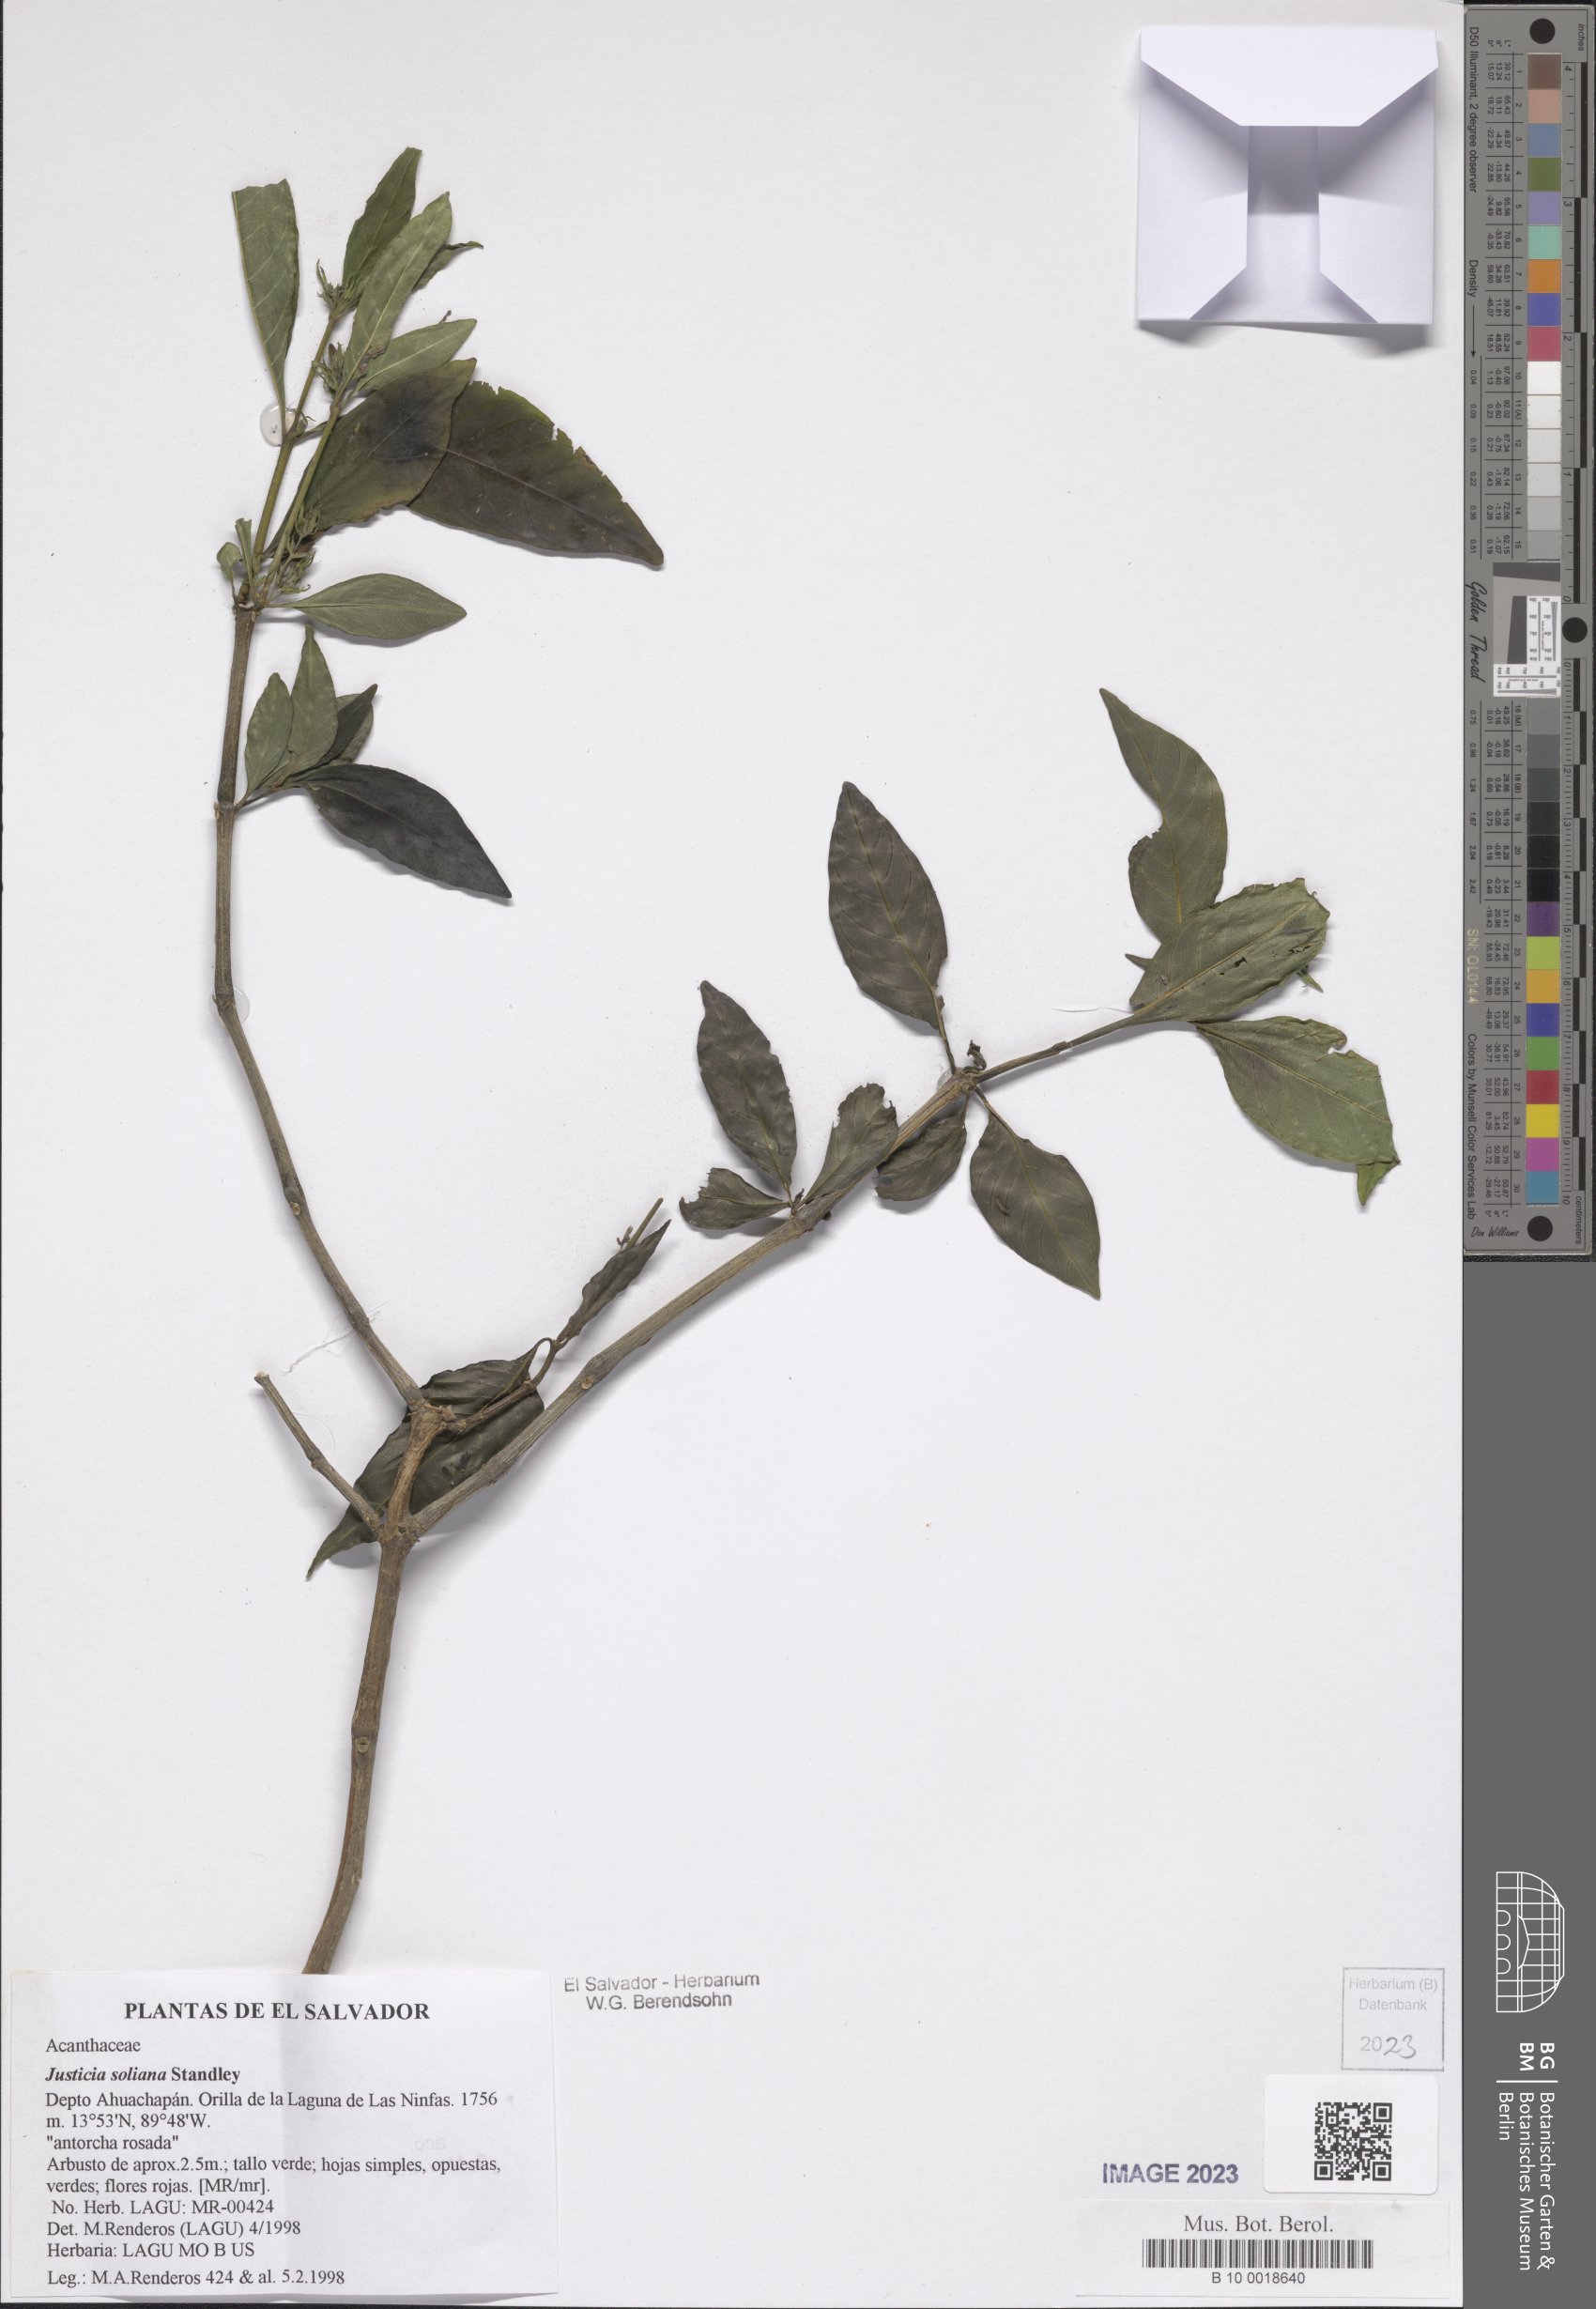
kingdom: Plantae
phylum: Tracheophyta
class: Magnoliopsida
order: Lamiales
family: Acanthaceae
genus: Justicia
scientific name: Justicia soliana
